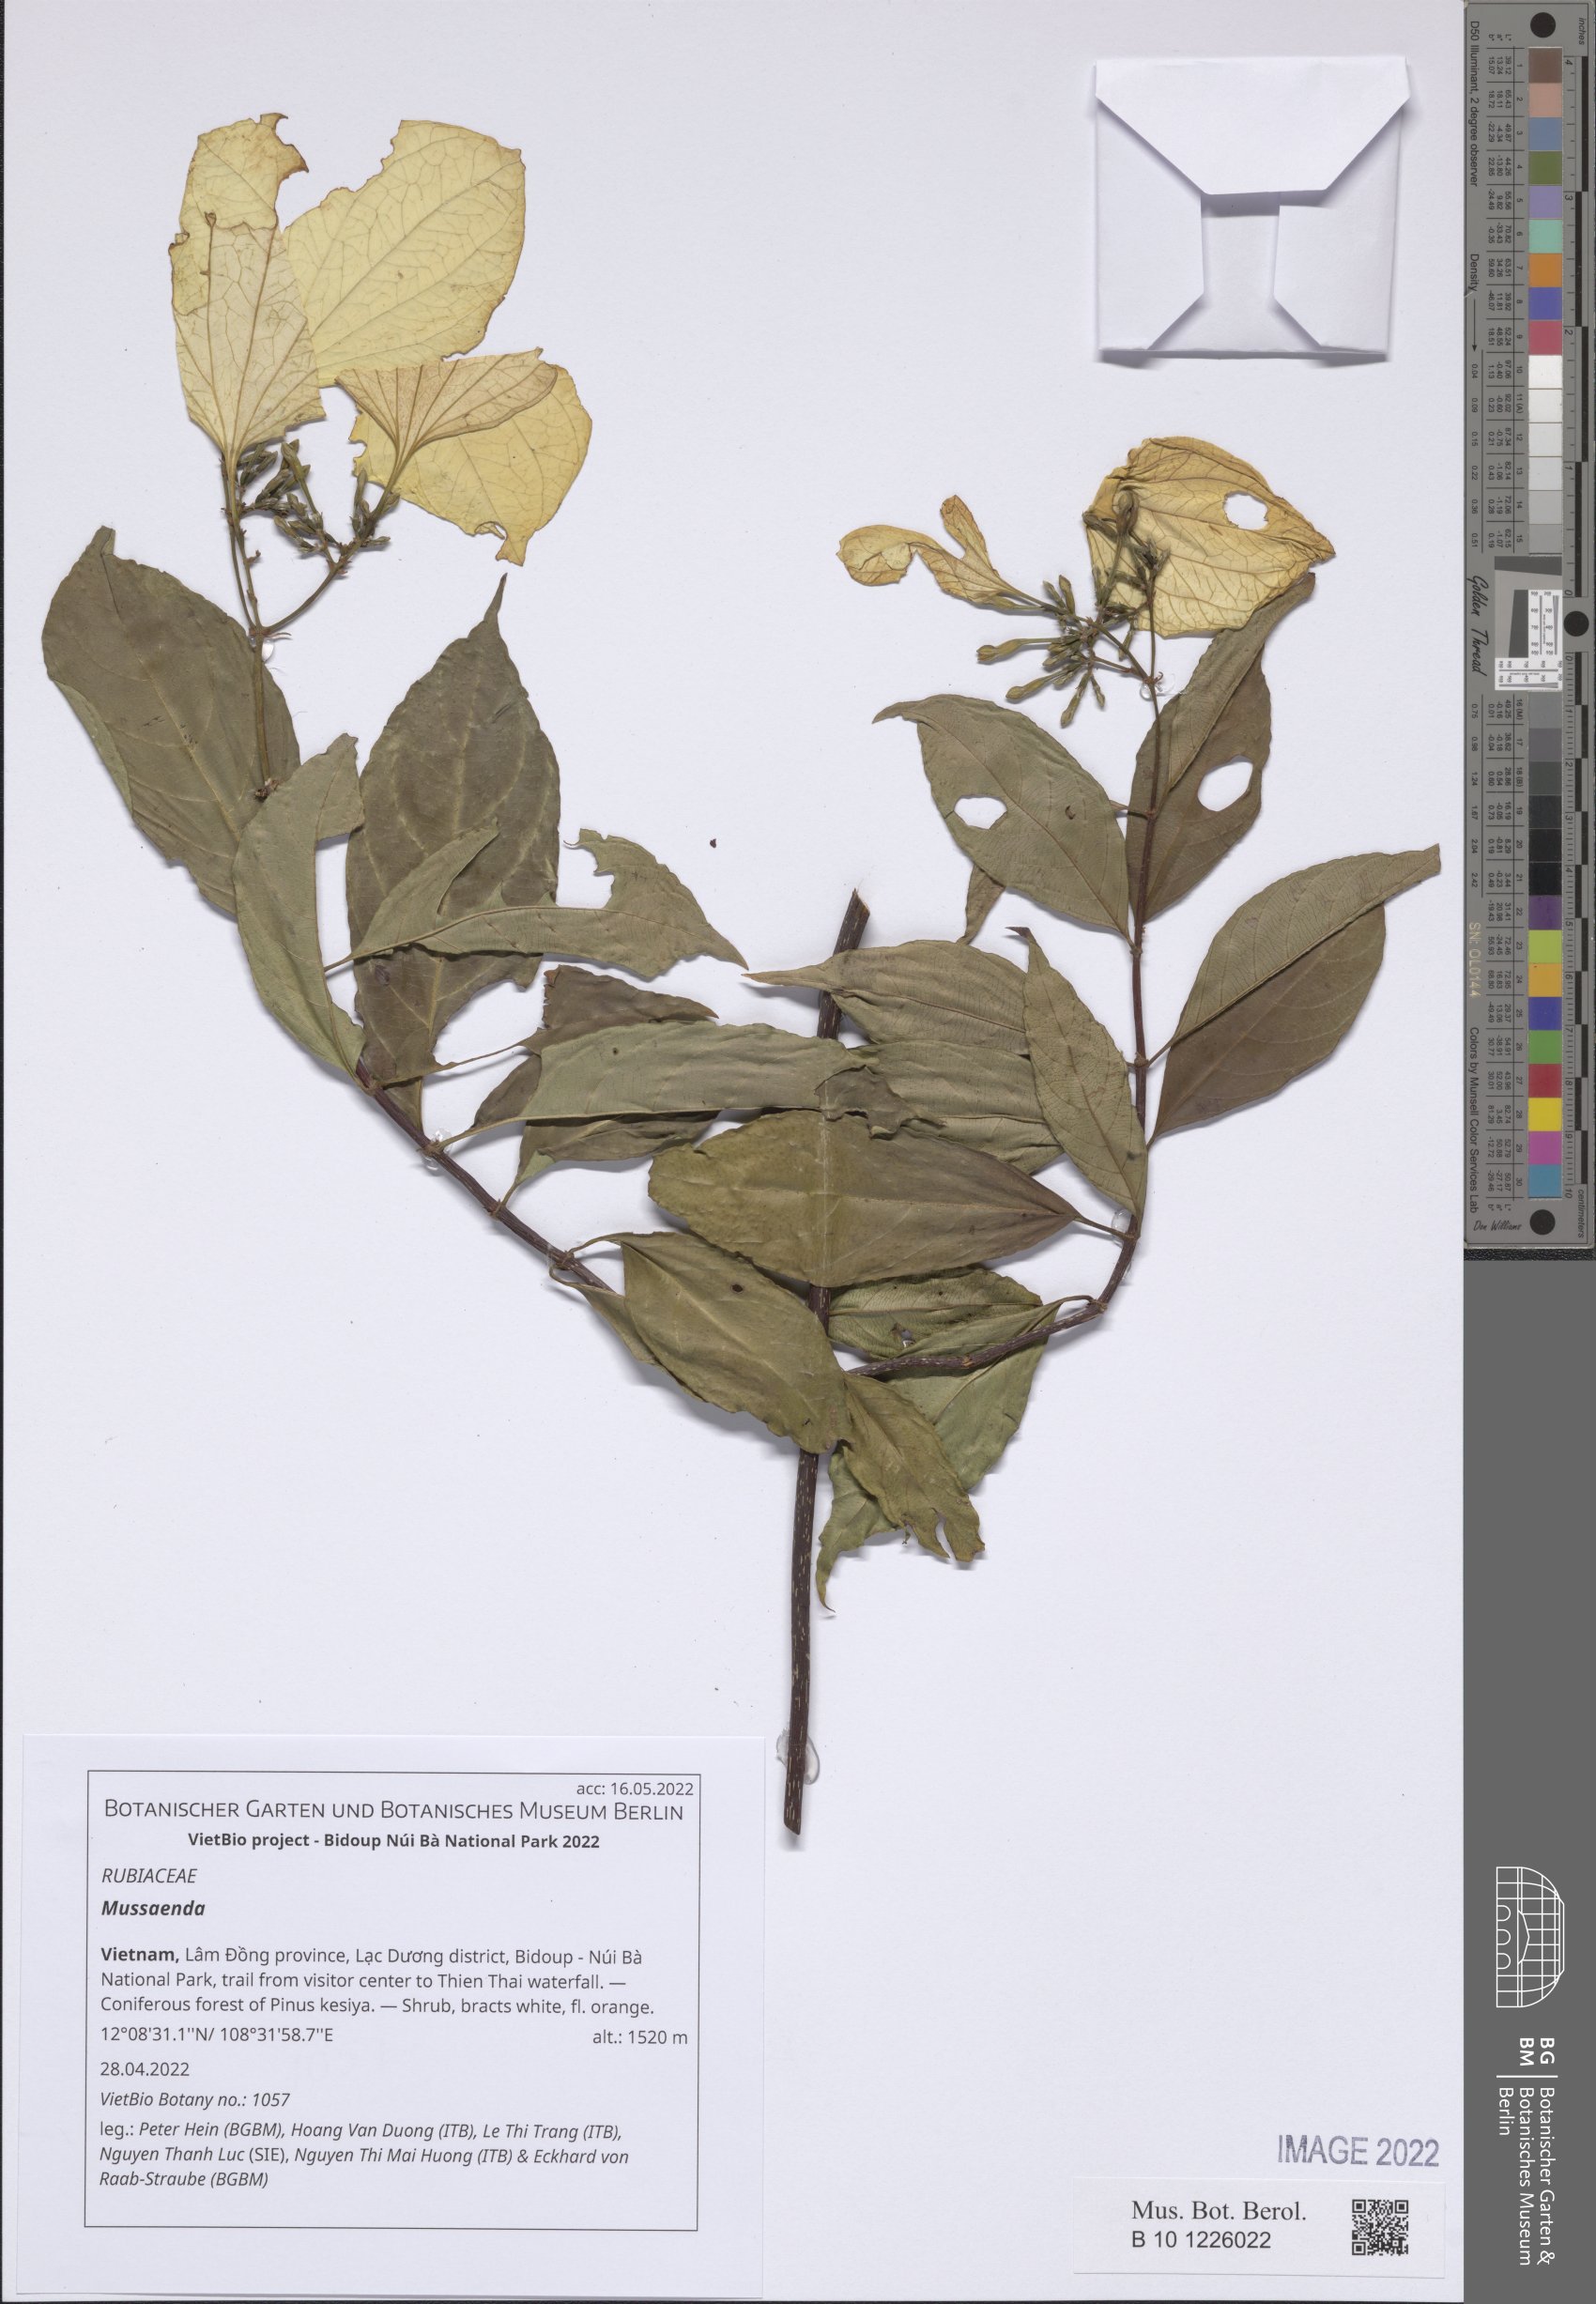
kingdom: Plantae
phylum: Tracheophyta
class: Magnoliopsida
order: Gentianales
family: Rubiaceae
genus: Mussaenda
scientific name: Mussaenda
